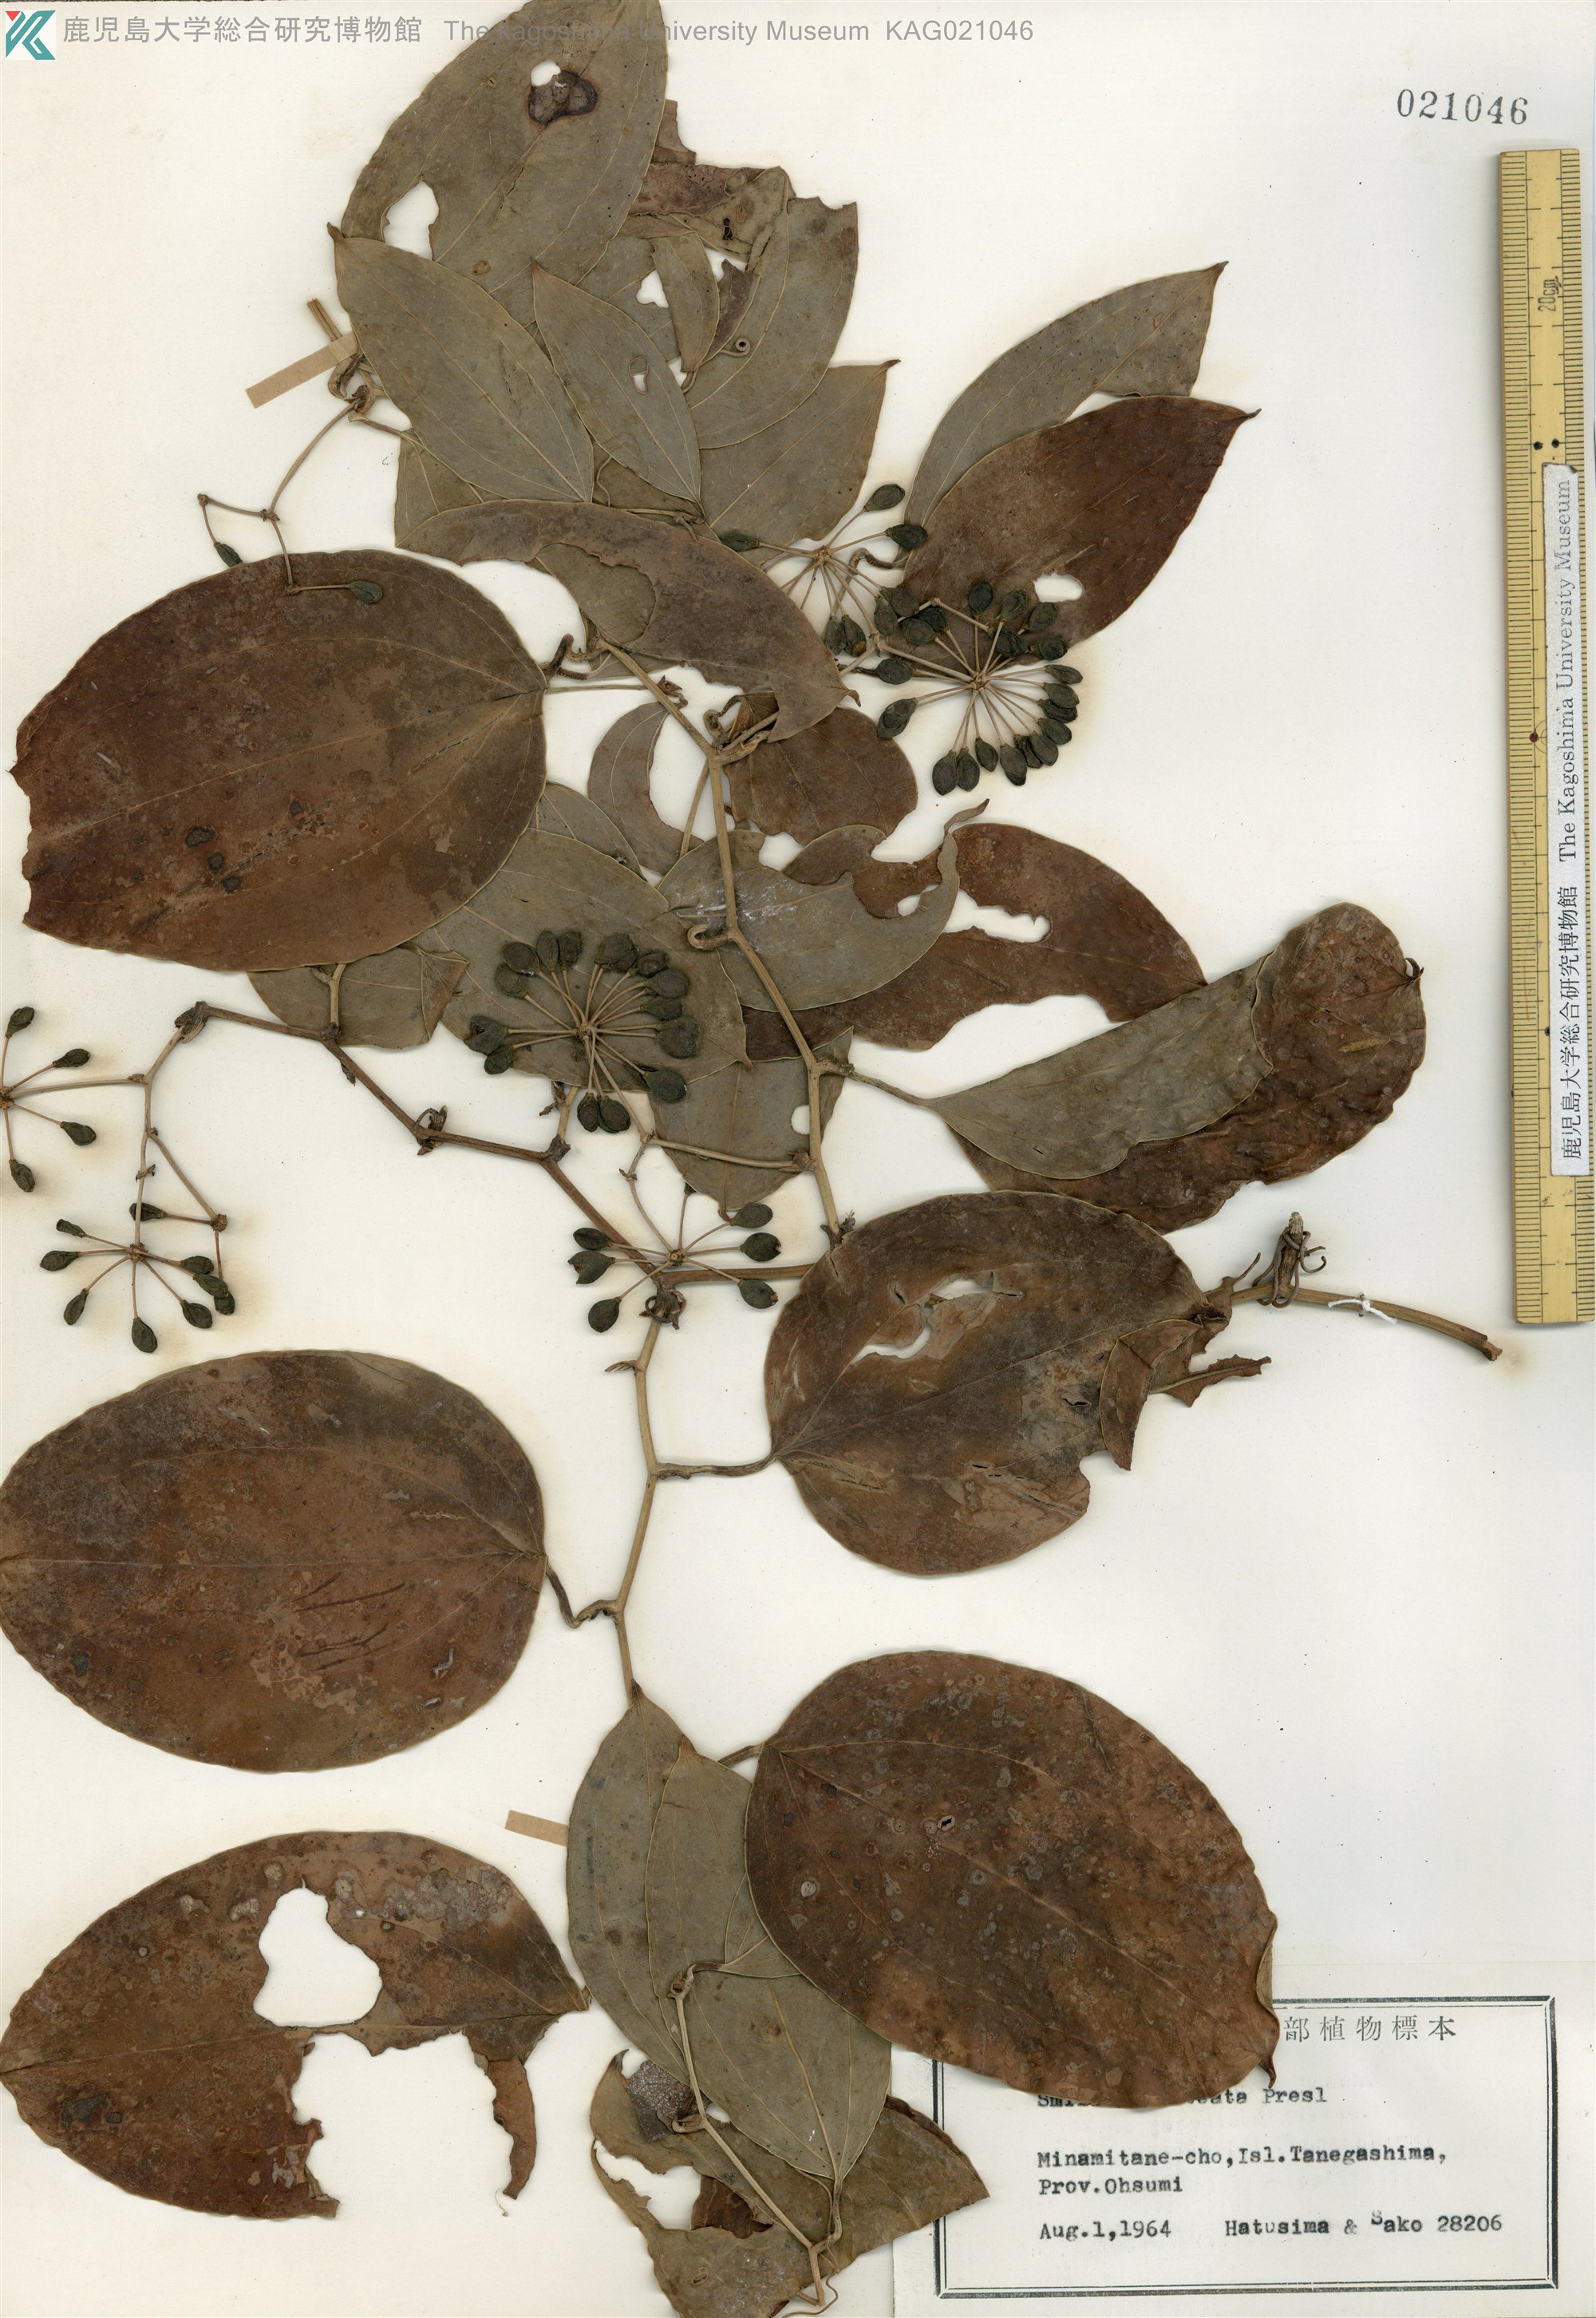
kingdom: Plantae
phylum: Tracheophyta
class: Liliopsida
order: Liliales
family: Smilacaceae
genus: Smilax
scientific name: Smilax bracteata
